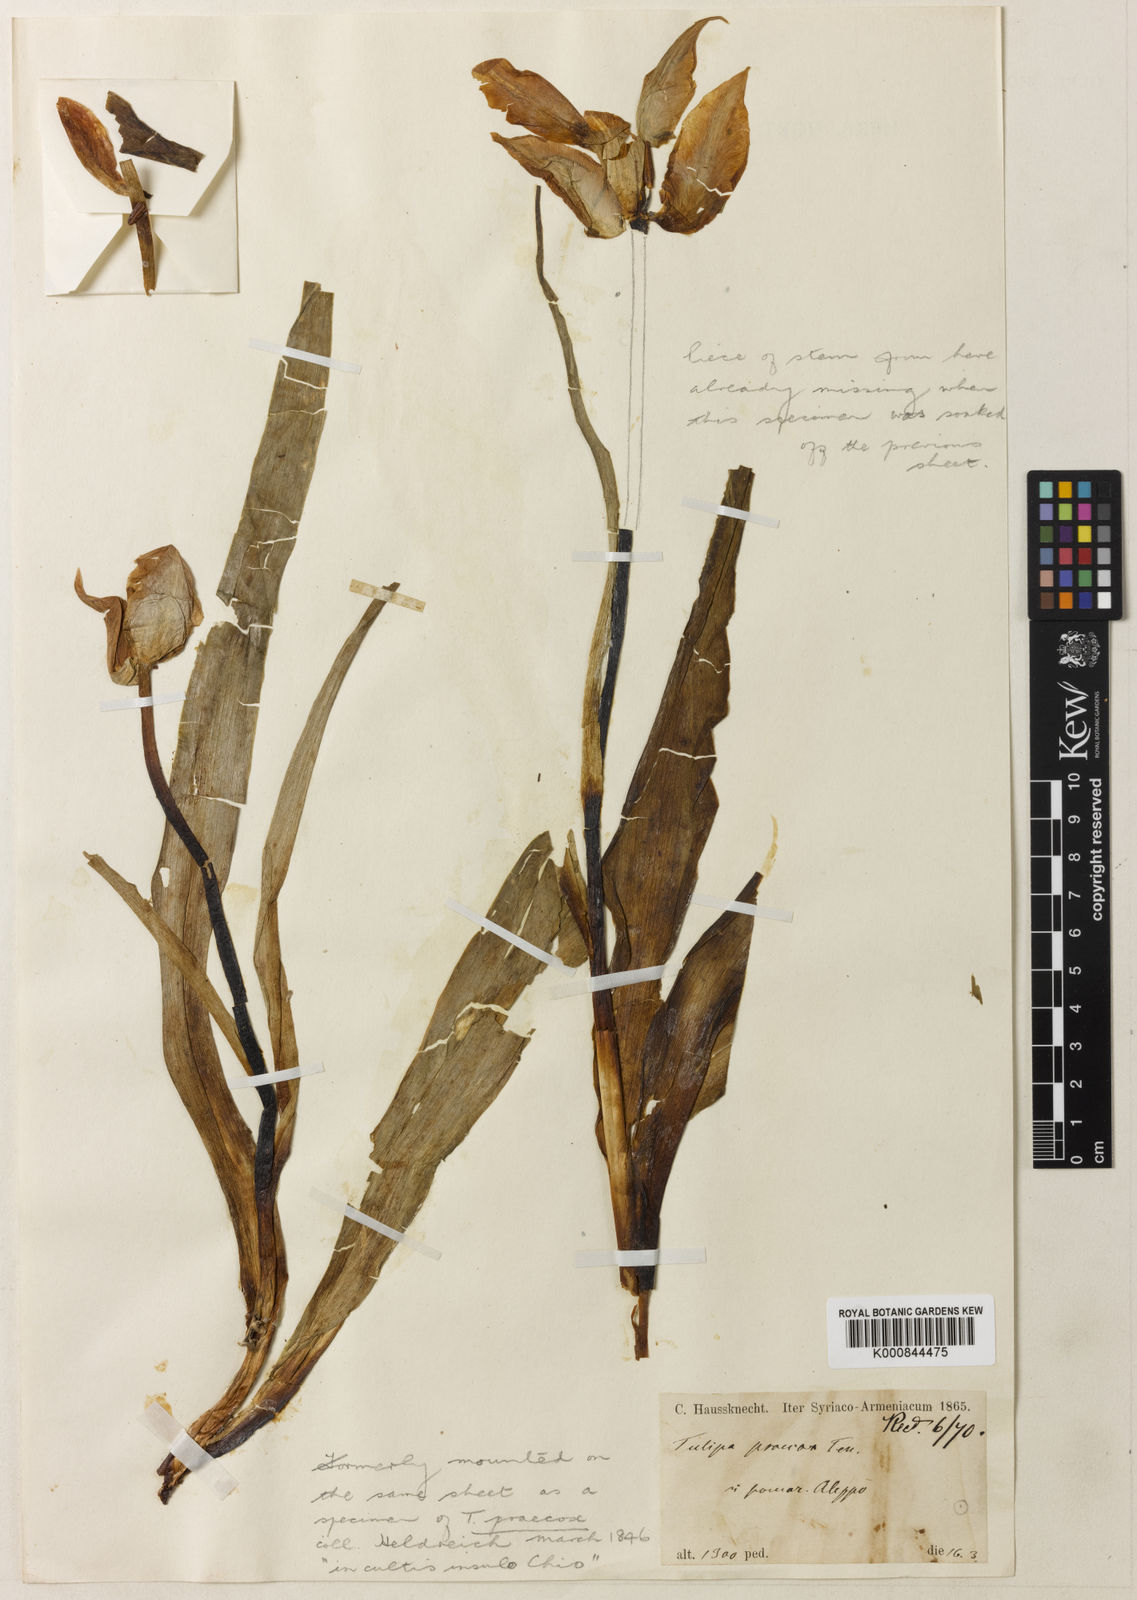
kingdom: Plantae
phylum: Tracheophyta
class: Liliopsida
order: Liliales
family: Liliaceae
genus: Tulipa
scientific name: Tulipa aleppensis
